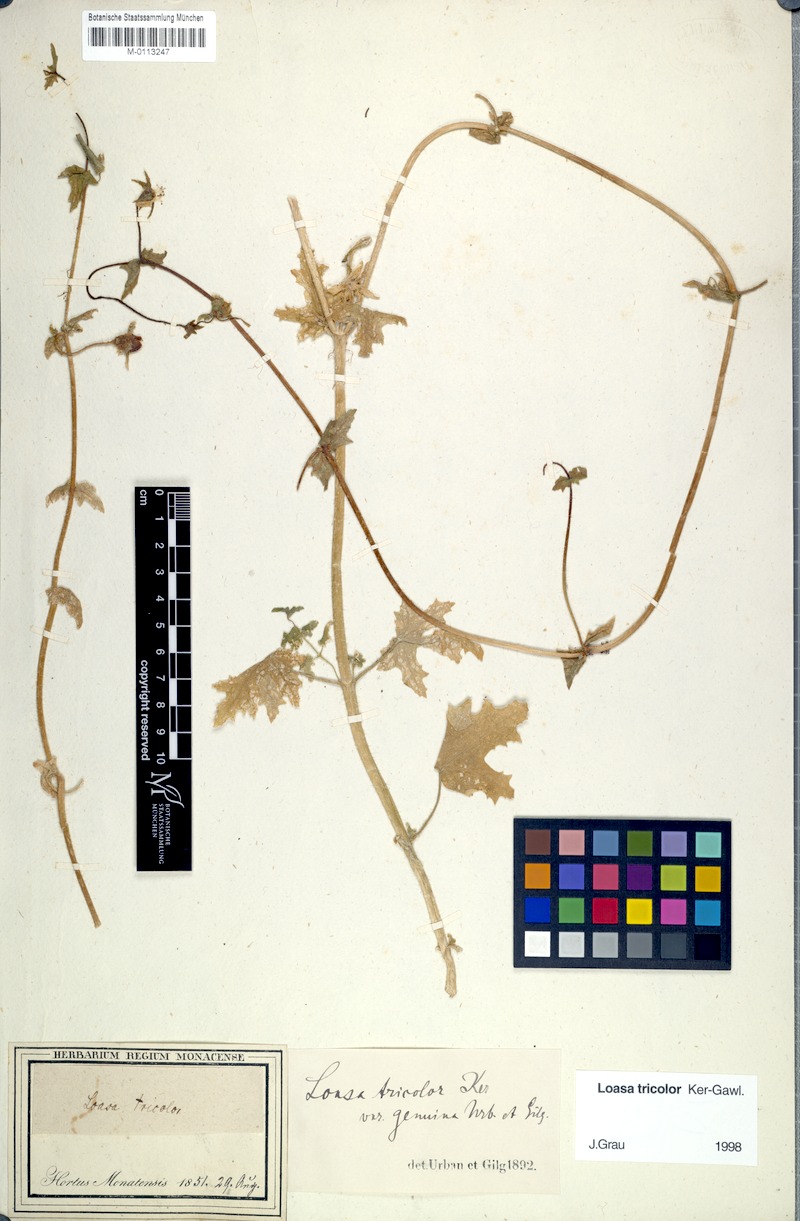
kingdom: Plantae
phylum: Tracheophyta
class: Magnoliopsida
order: Cornales
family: Loasaceae
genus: Loasa
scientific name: Loasa tricolor
